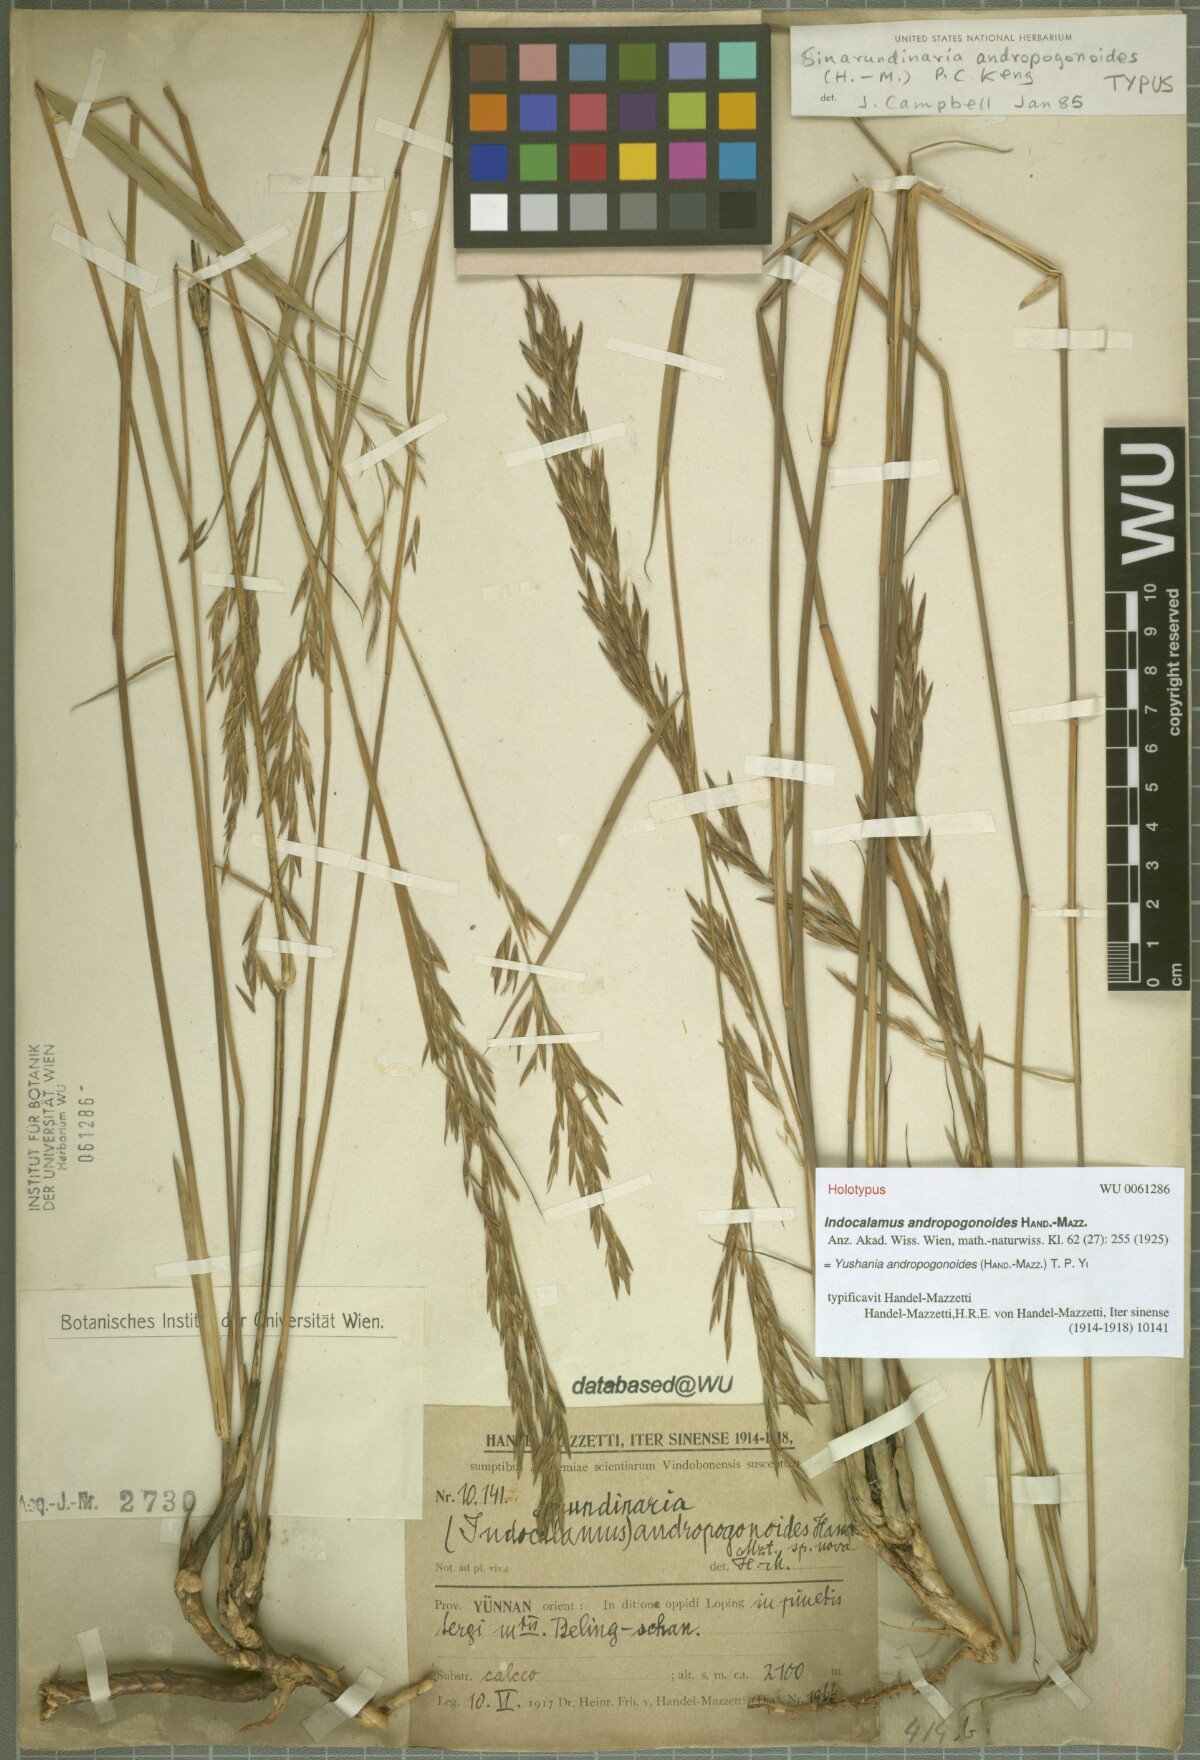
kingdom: Plantae
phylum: Tracheophyta
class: Liliopsida
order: Poales
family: Poaceae
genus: Yushania
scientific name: Yushania andropogonoides
